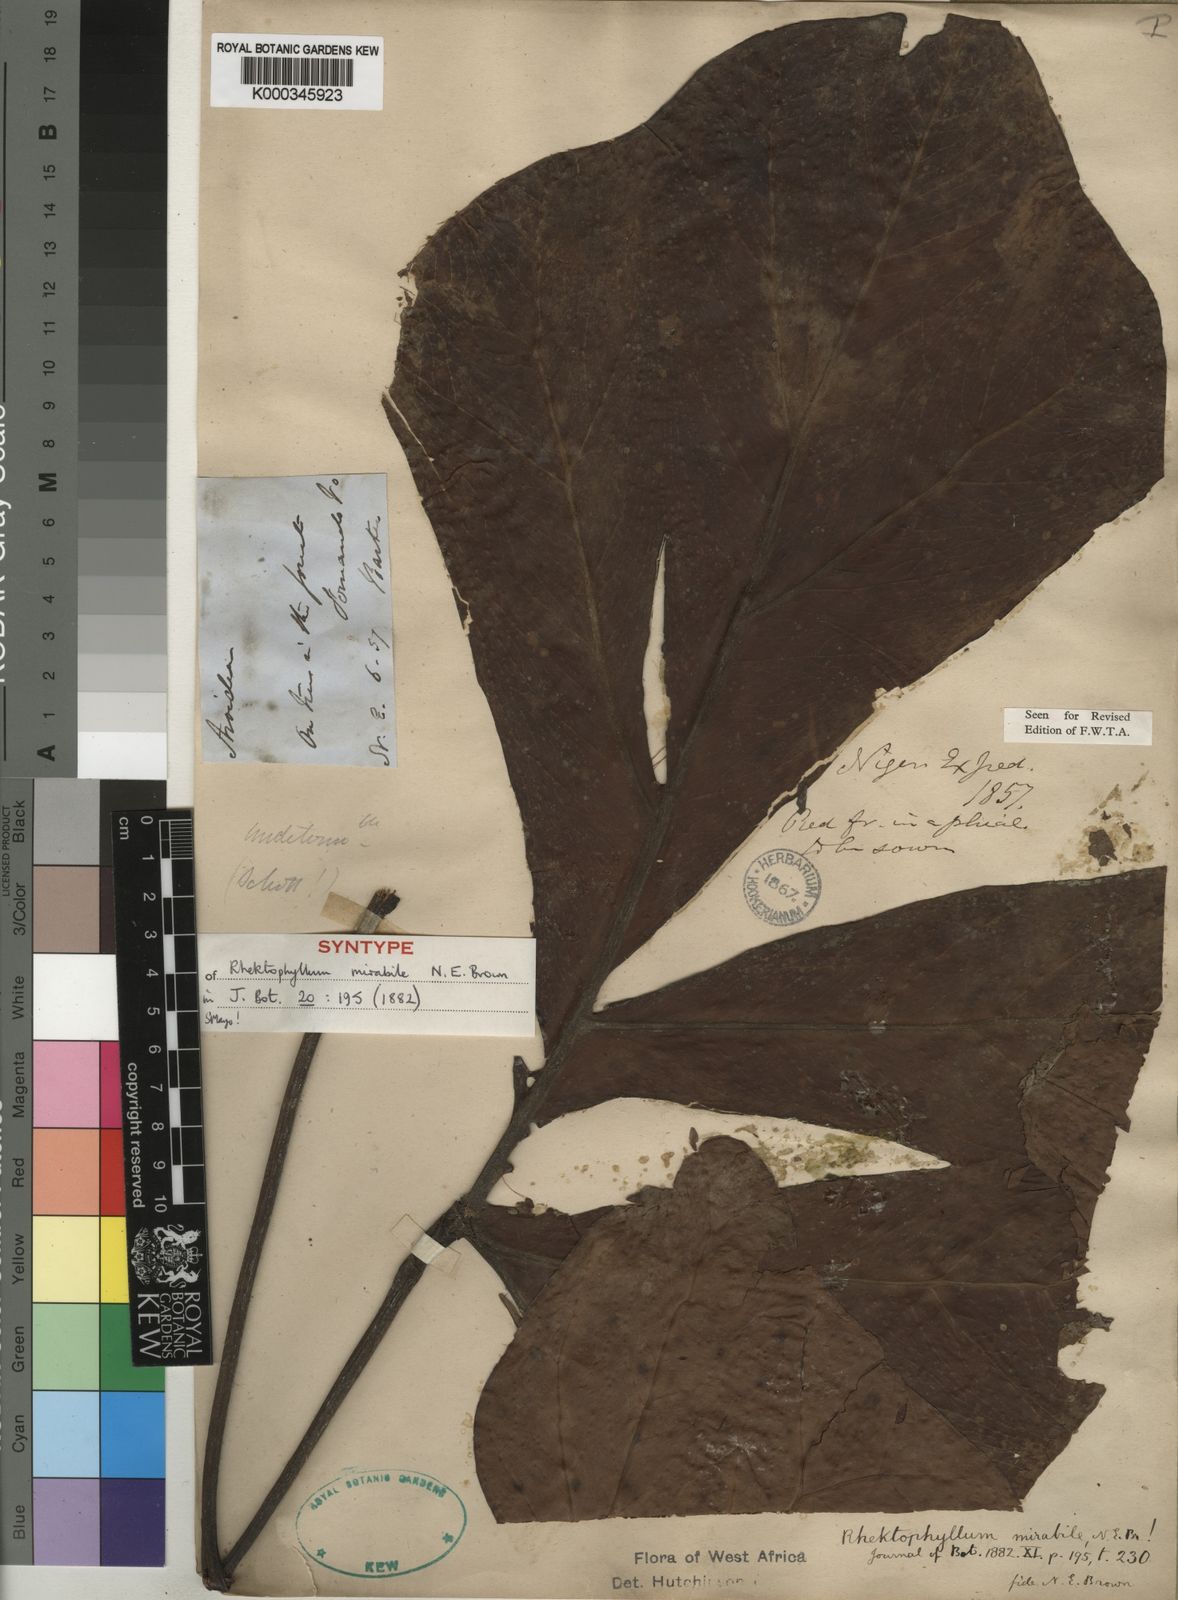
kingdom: Plantae
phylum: Tracheophyta
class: Liliopsida
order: Alismatales
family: Araceae
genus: Cercestis
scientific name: Cercestis mirabilis
